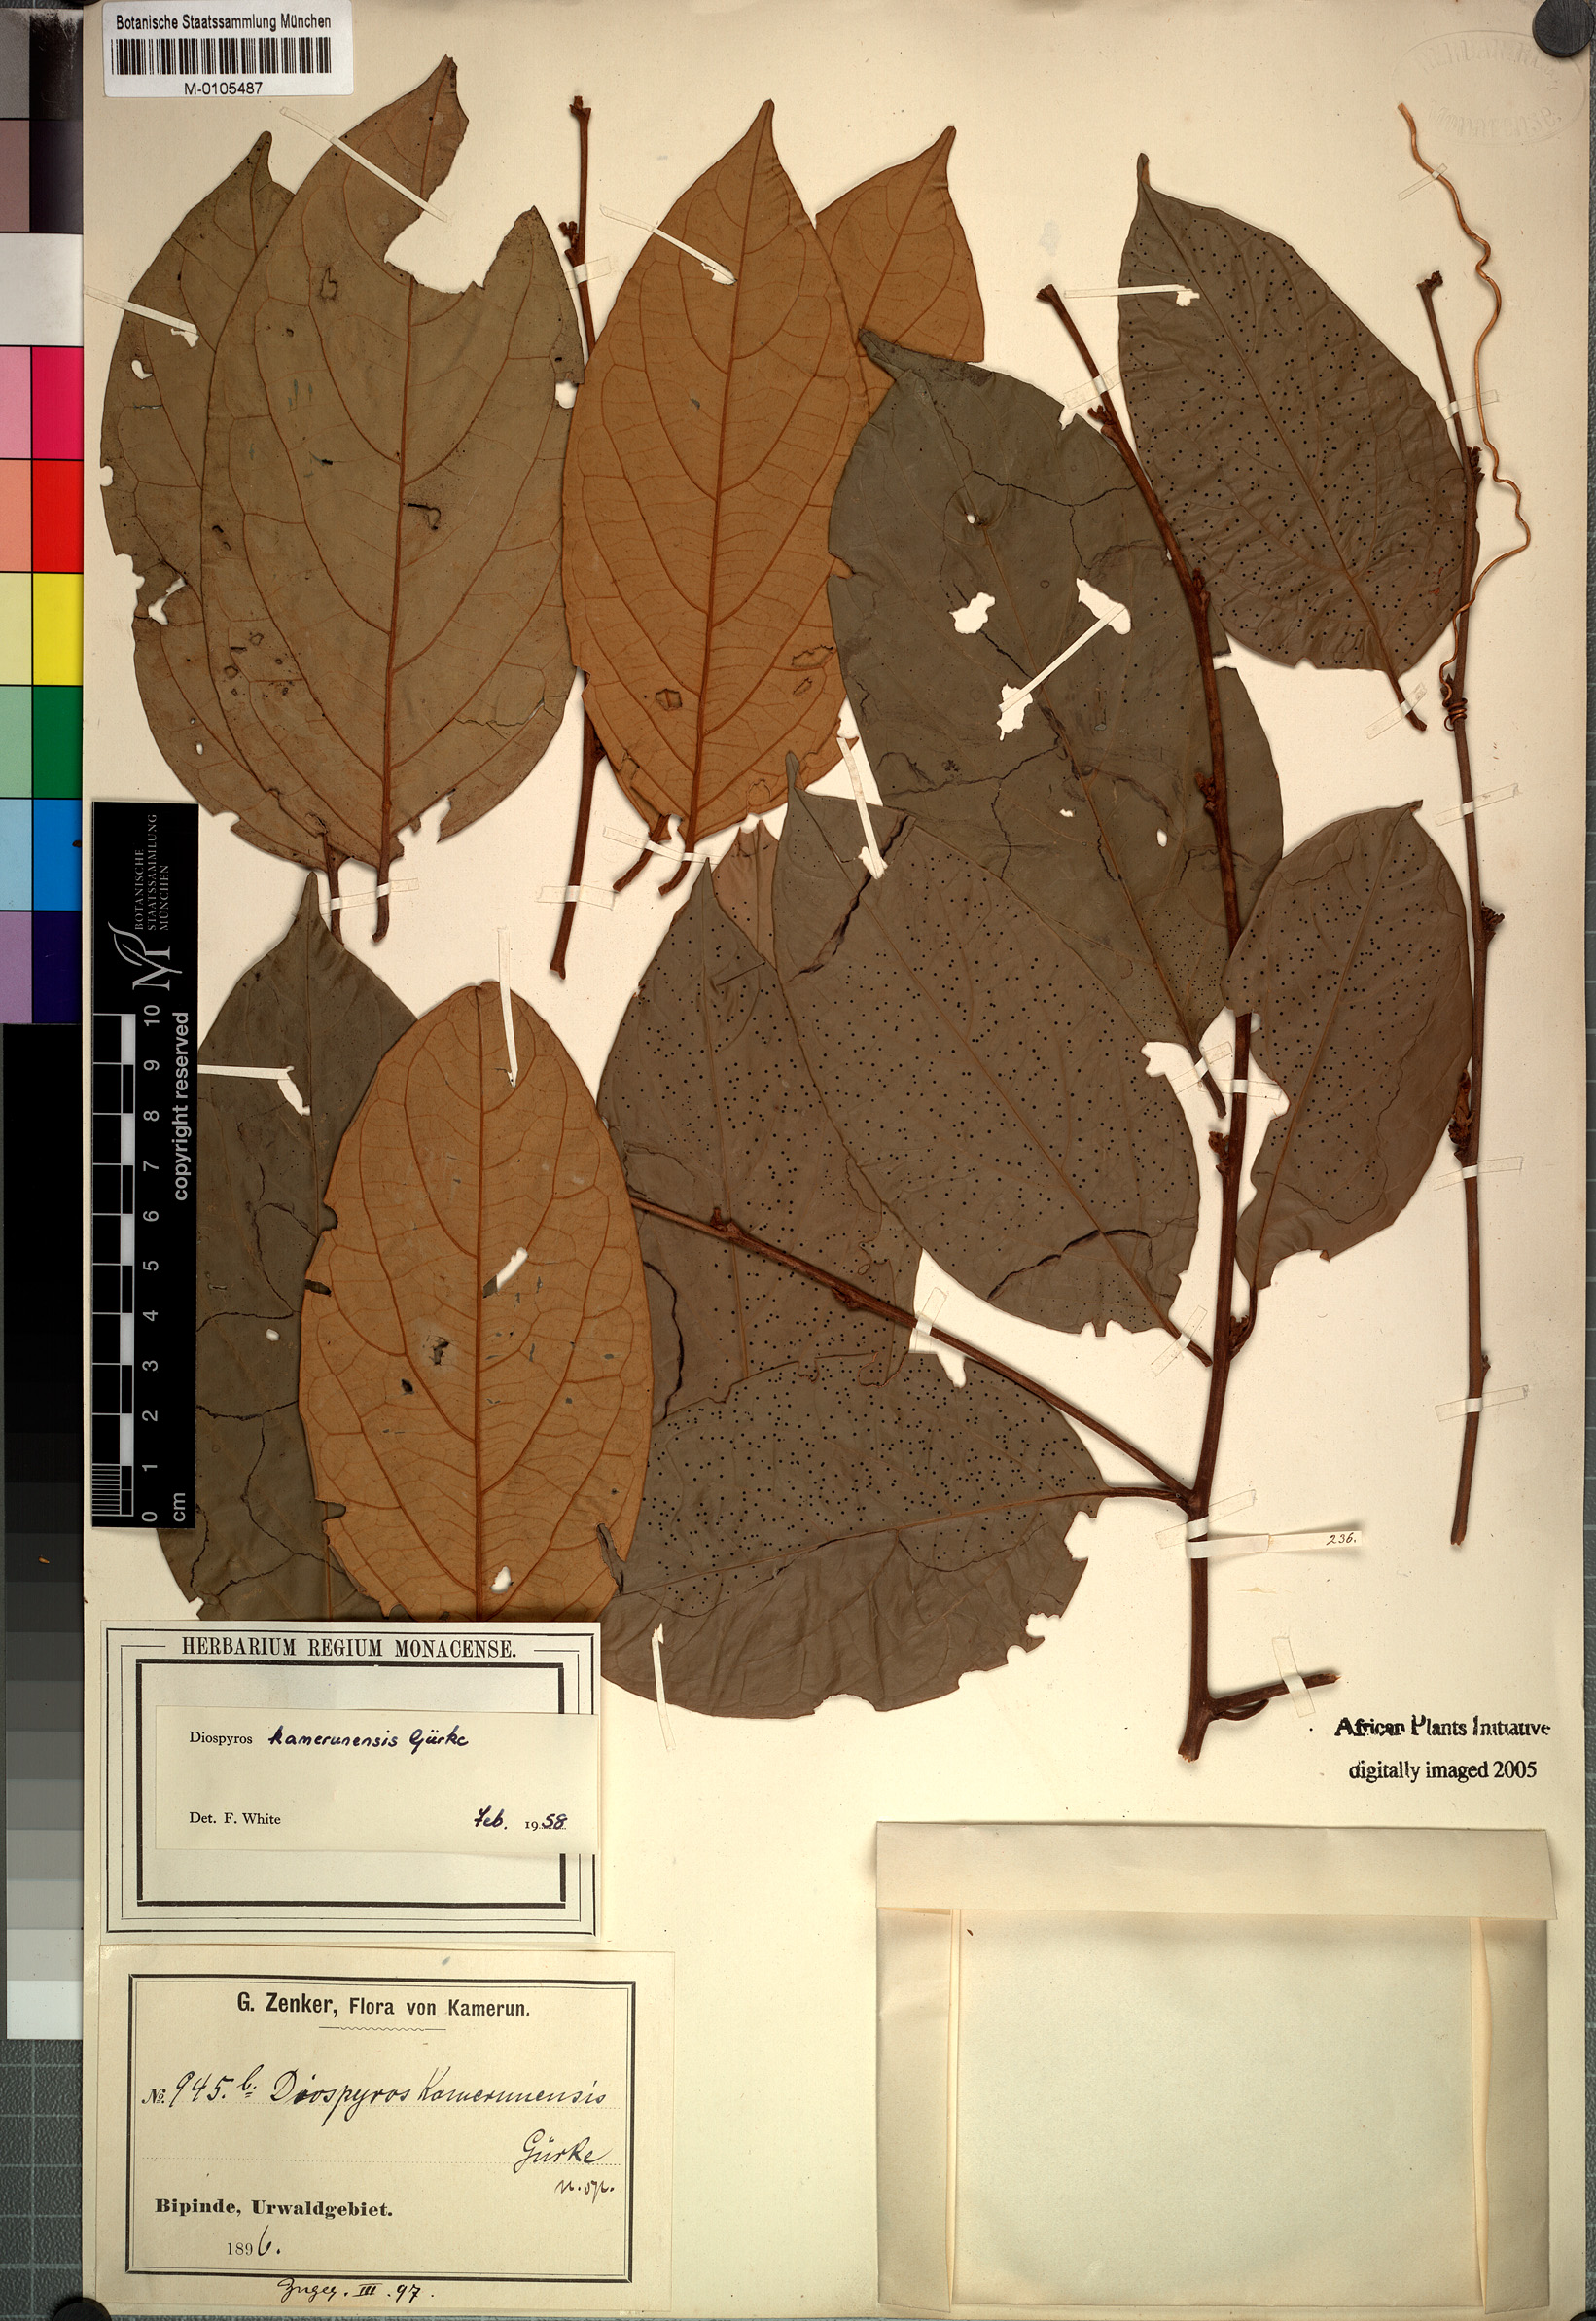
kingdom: Plantae
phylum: Tracheophyta
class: Magnoliopsida
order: Ericales
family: Ebenaceae
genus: Diospyros
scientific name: Diospyros kamerunensis
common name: African ebony
